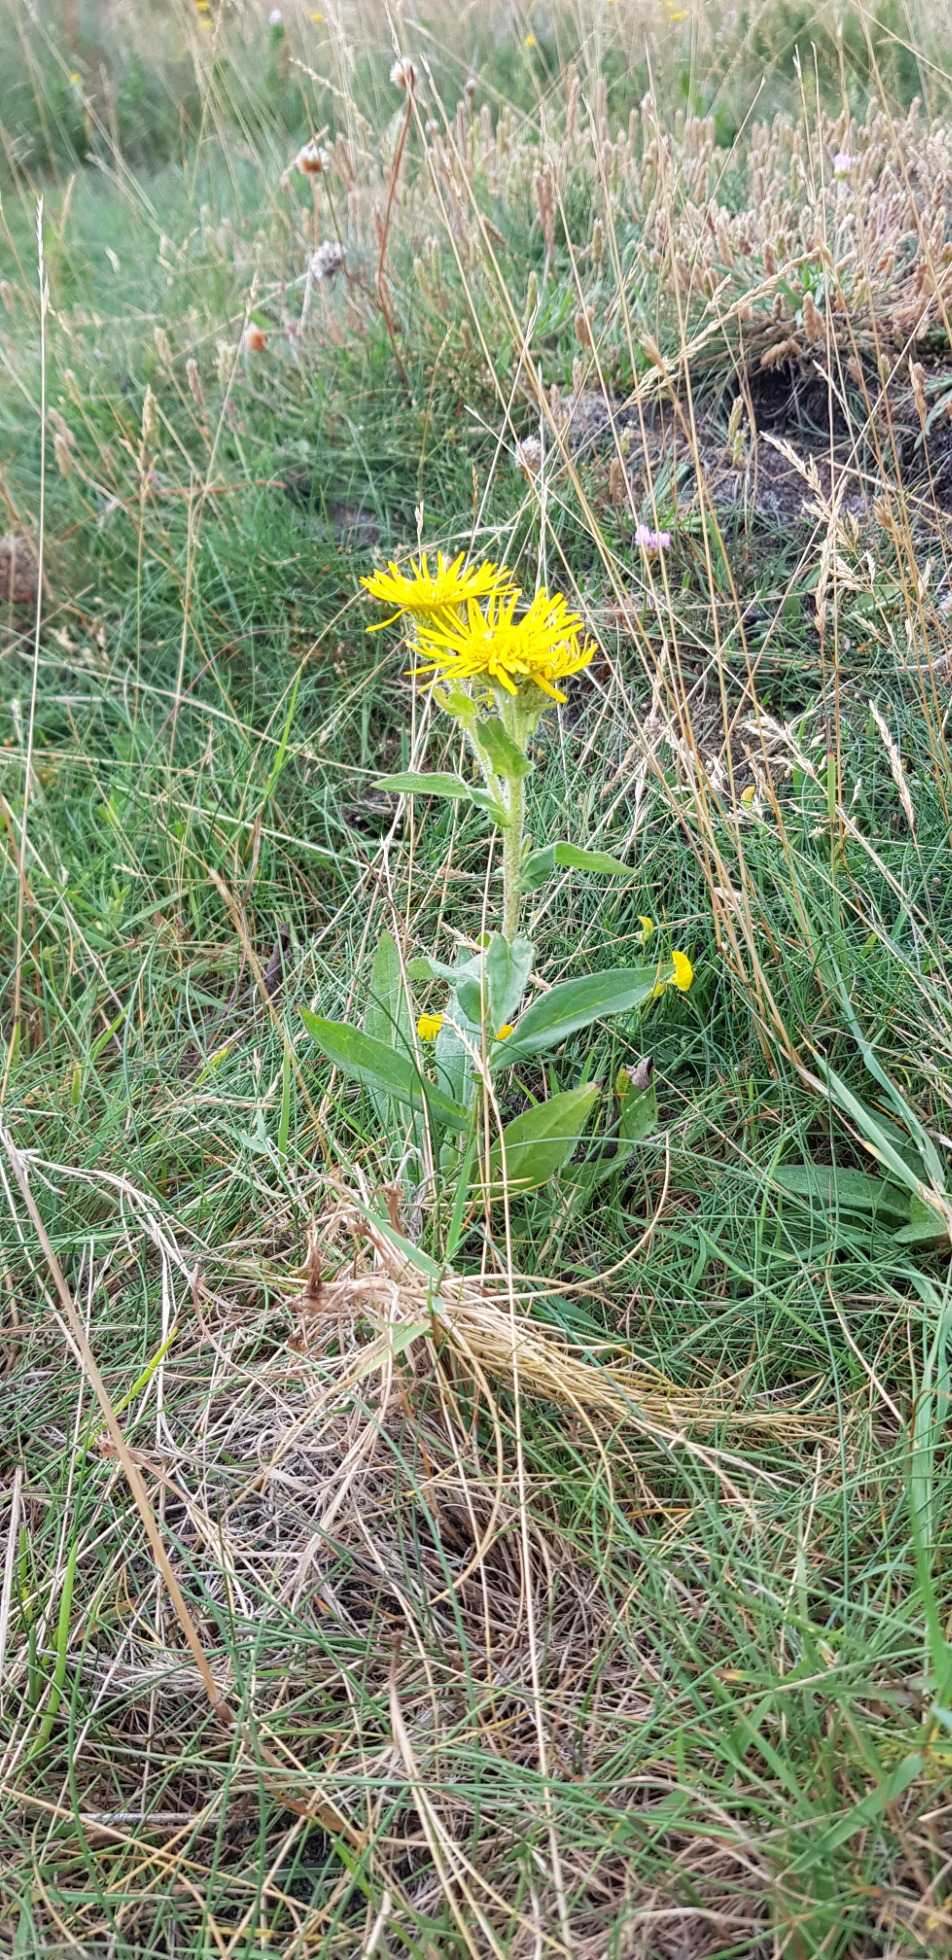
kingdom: Plantae
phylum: Tracheophyta
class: Magnoliopsida
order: Asterales
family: Asteraceae
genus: Pentanema
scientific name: Pentanema britannicum
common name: Soløje-alant
